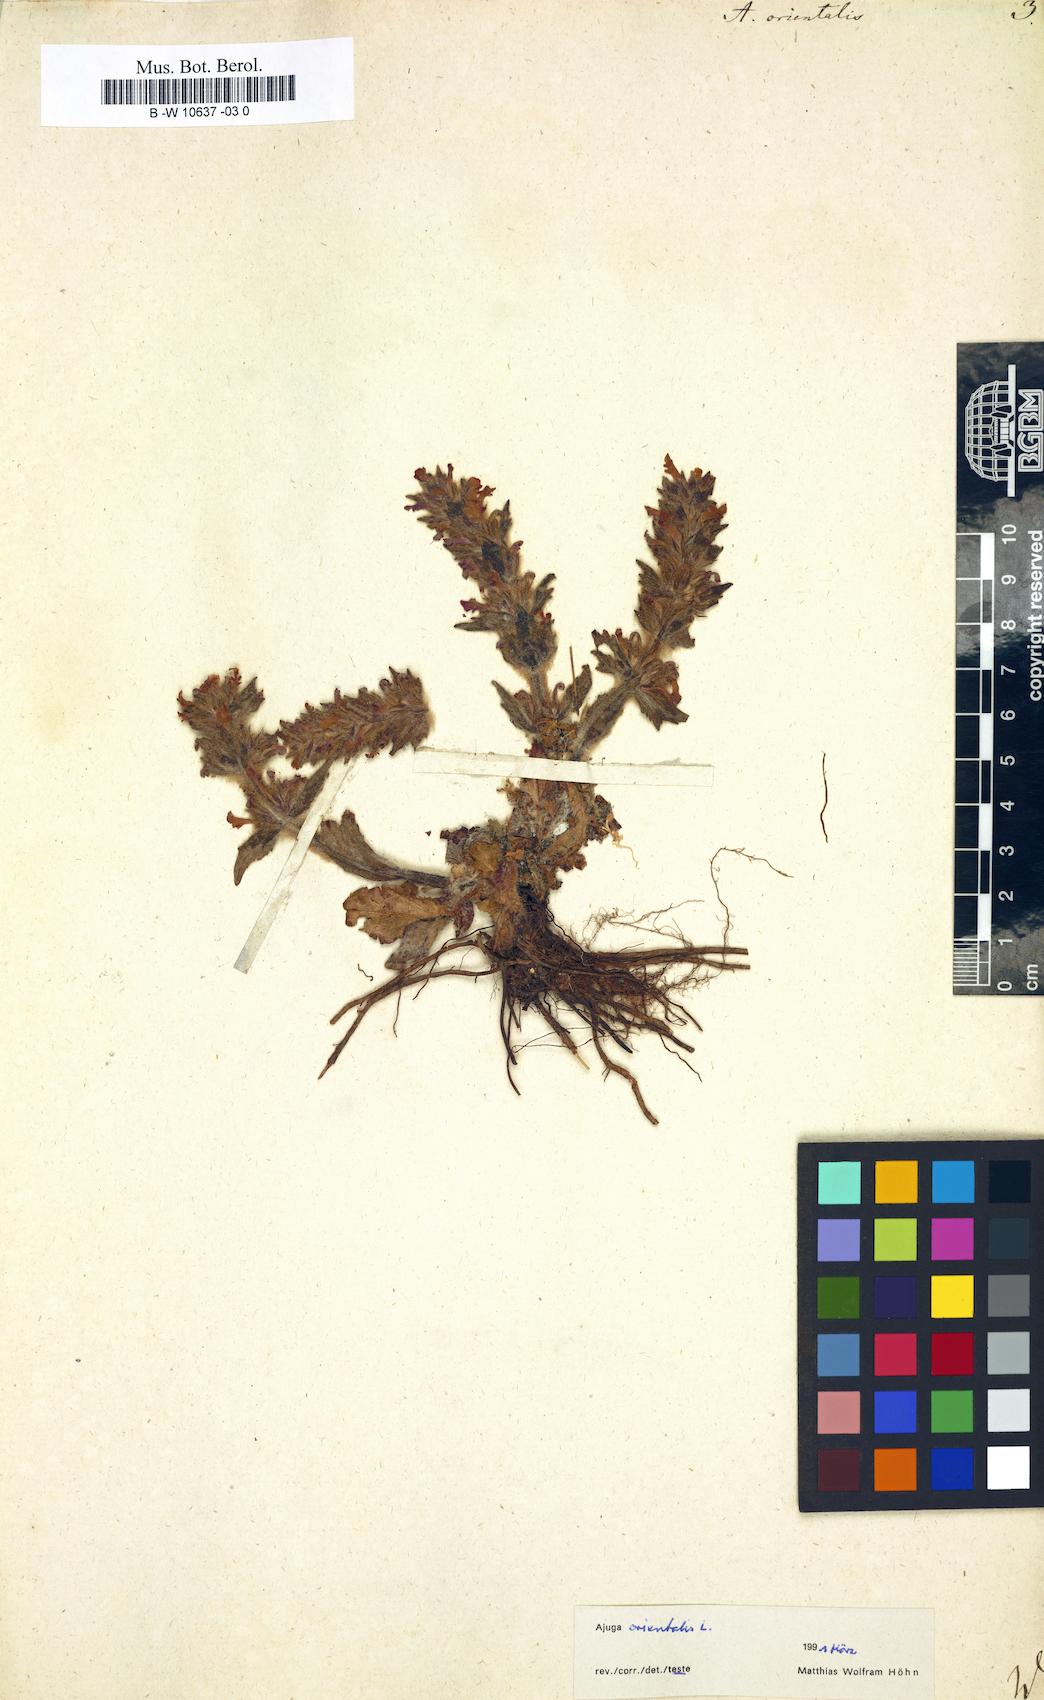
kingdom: Plantae
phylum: Tracheophyta
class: Magnoliopsida
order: Lamiales
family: Lamiaceae
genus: Ajuga
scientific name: Ajuga orientalis
